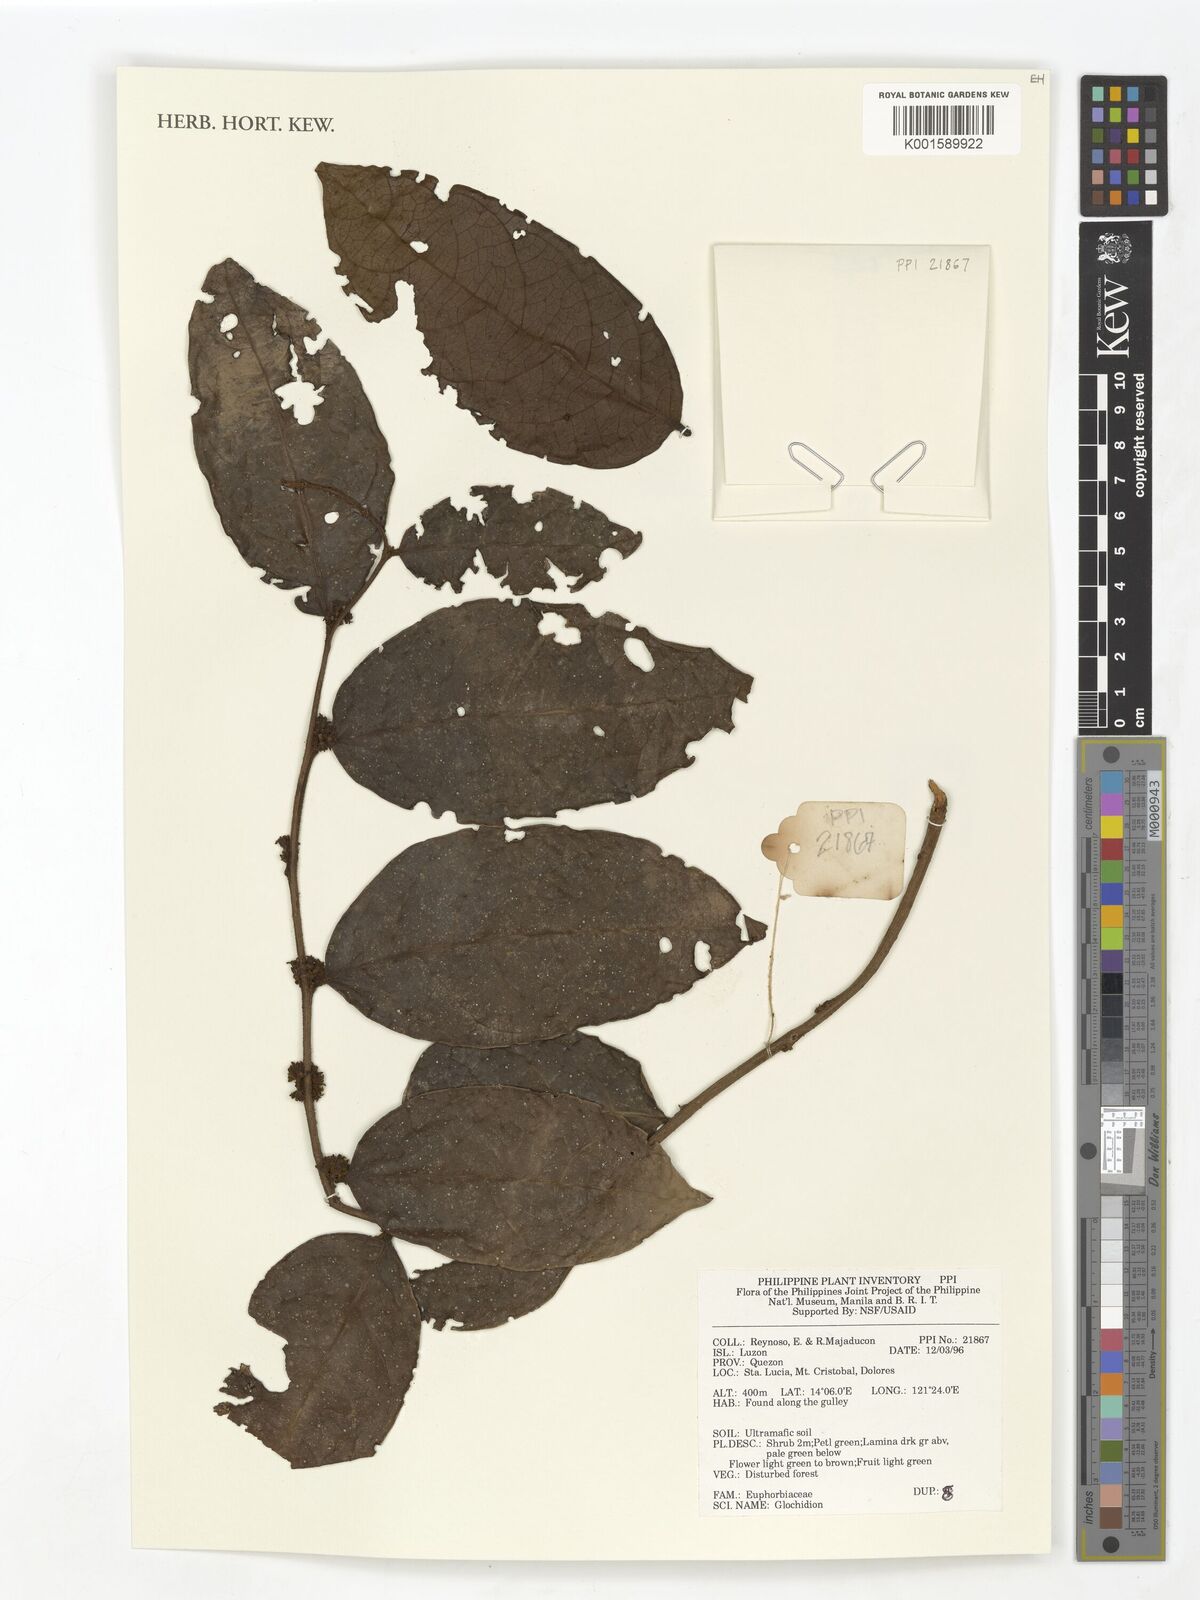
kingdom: Plantae
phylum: Tracheophyta
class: Magnoliopsida
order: Malpighiales
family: Phyllanthaceae
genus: Glochidion
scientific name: Glochidion
